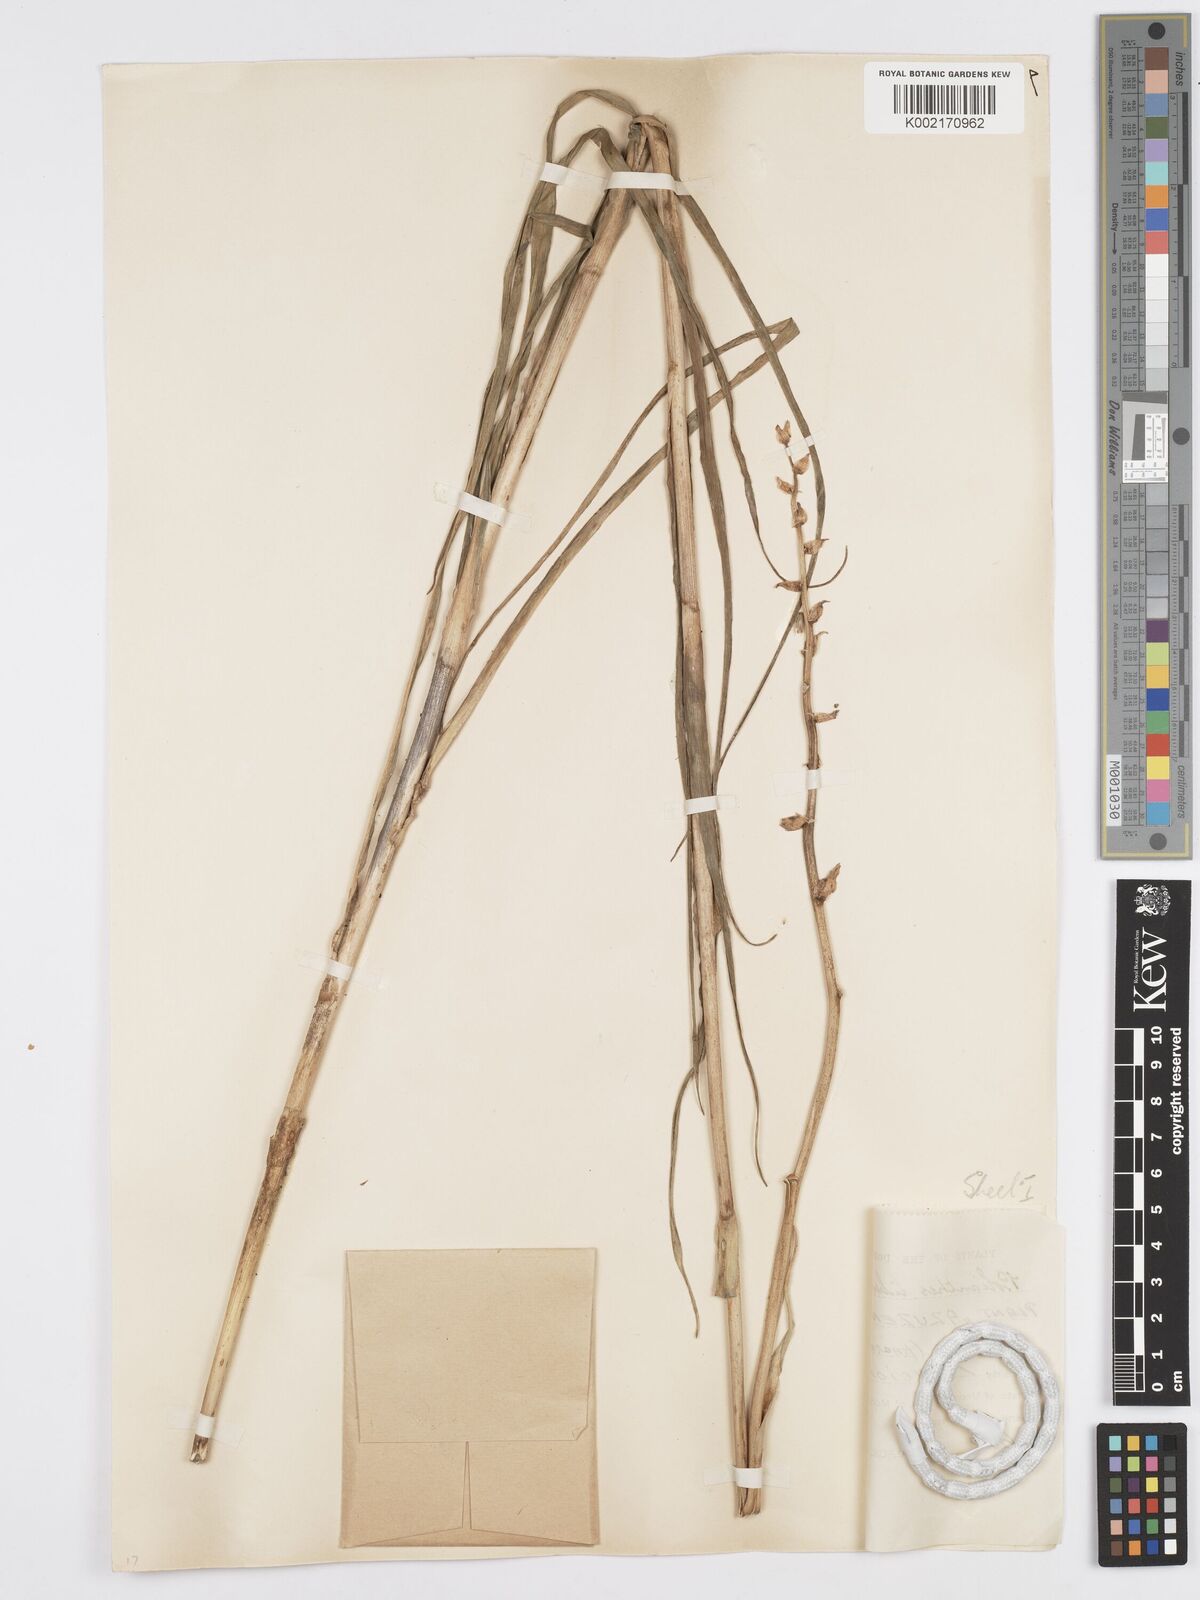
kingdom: Plantae
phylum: Tracheophyta
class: Liliopsida
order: Asparagales
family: Asparagaceae
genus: Agave
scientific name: Agave amica
